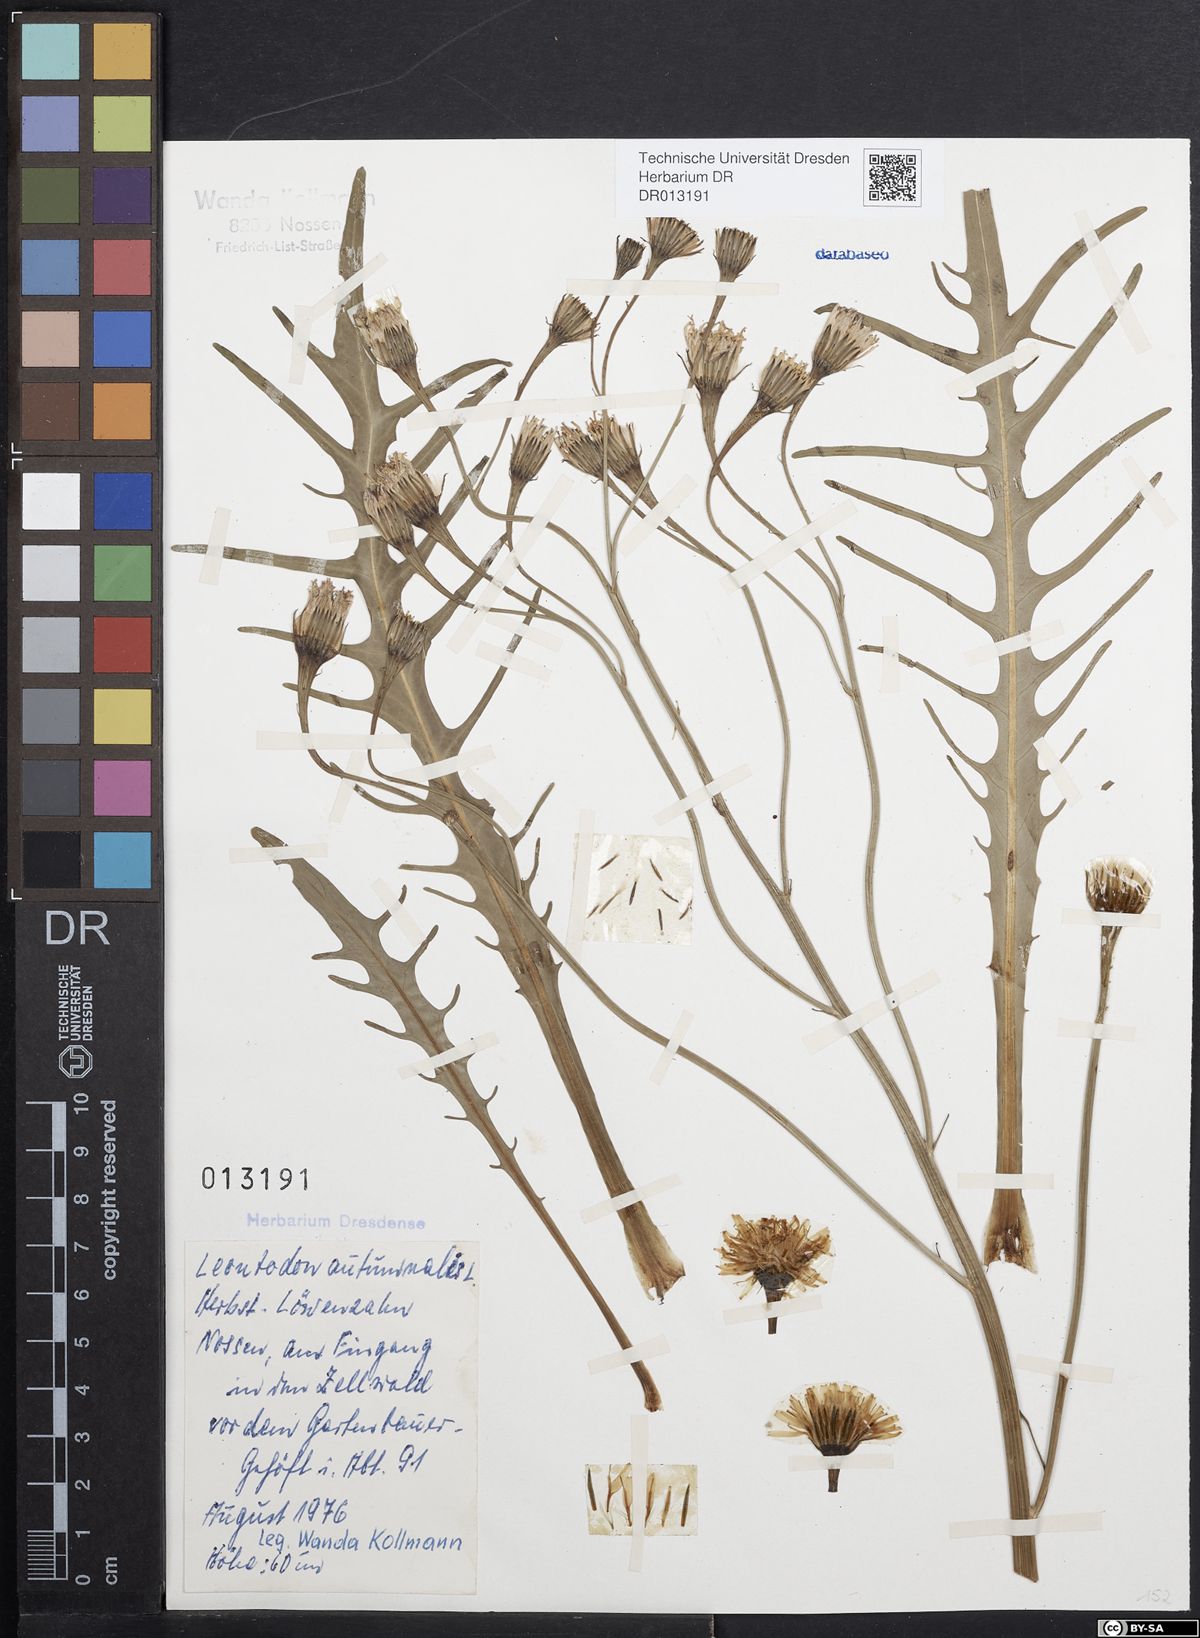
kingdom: Plantae
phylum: Tracheophyta
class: Magnoliopsida
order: Asterales
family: Asteraceae
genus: Scorzoneroides
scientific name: Scorzoneroides autumnalis
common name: Autumn hawkbit
